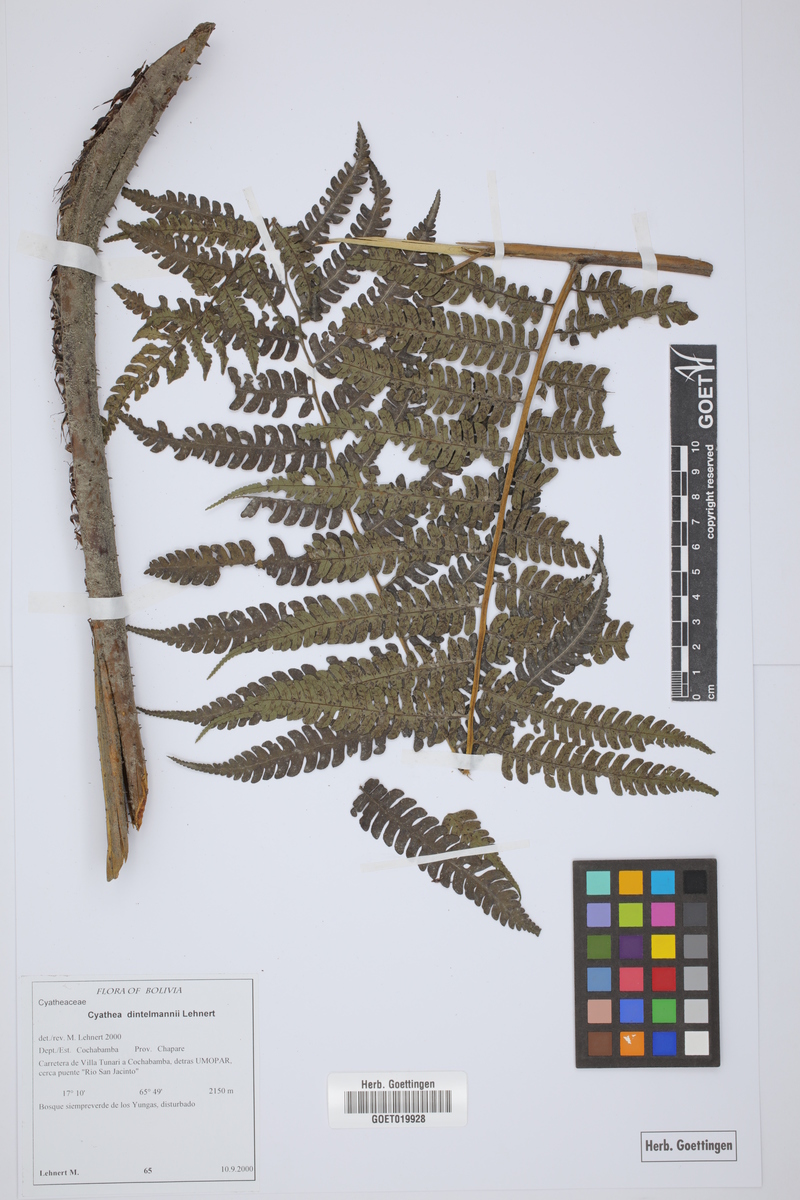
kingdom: Plantae
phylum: Tracheophyta
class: Polypodiopsida
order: Cyatheales
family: Cyatheaceae
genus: Cyathea
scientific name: Cyathea dintelmannii
